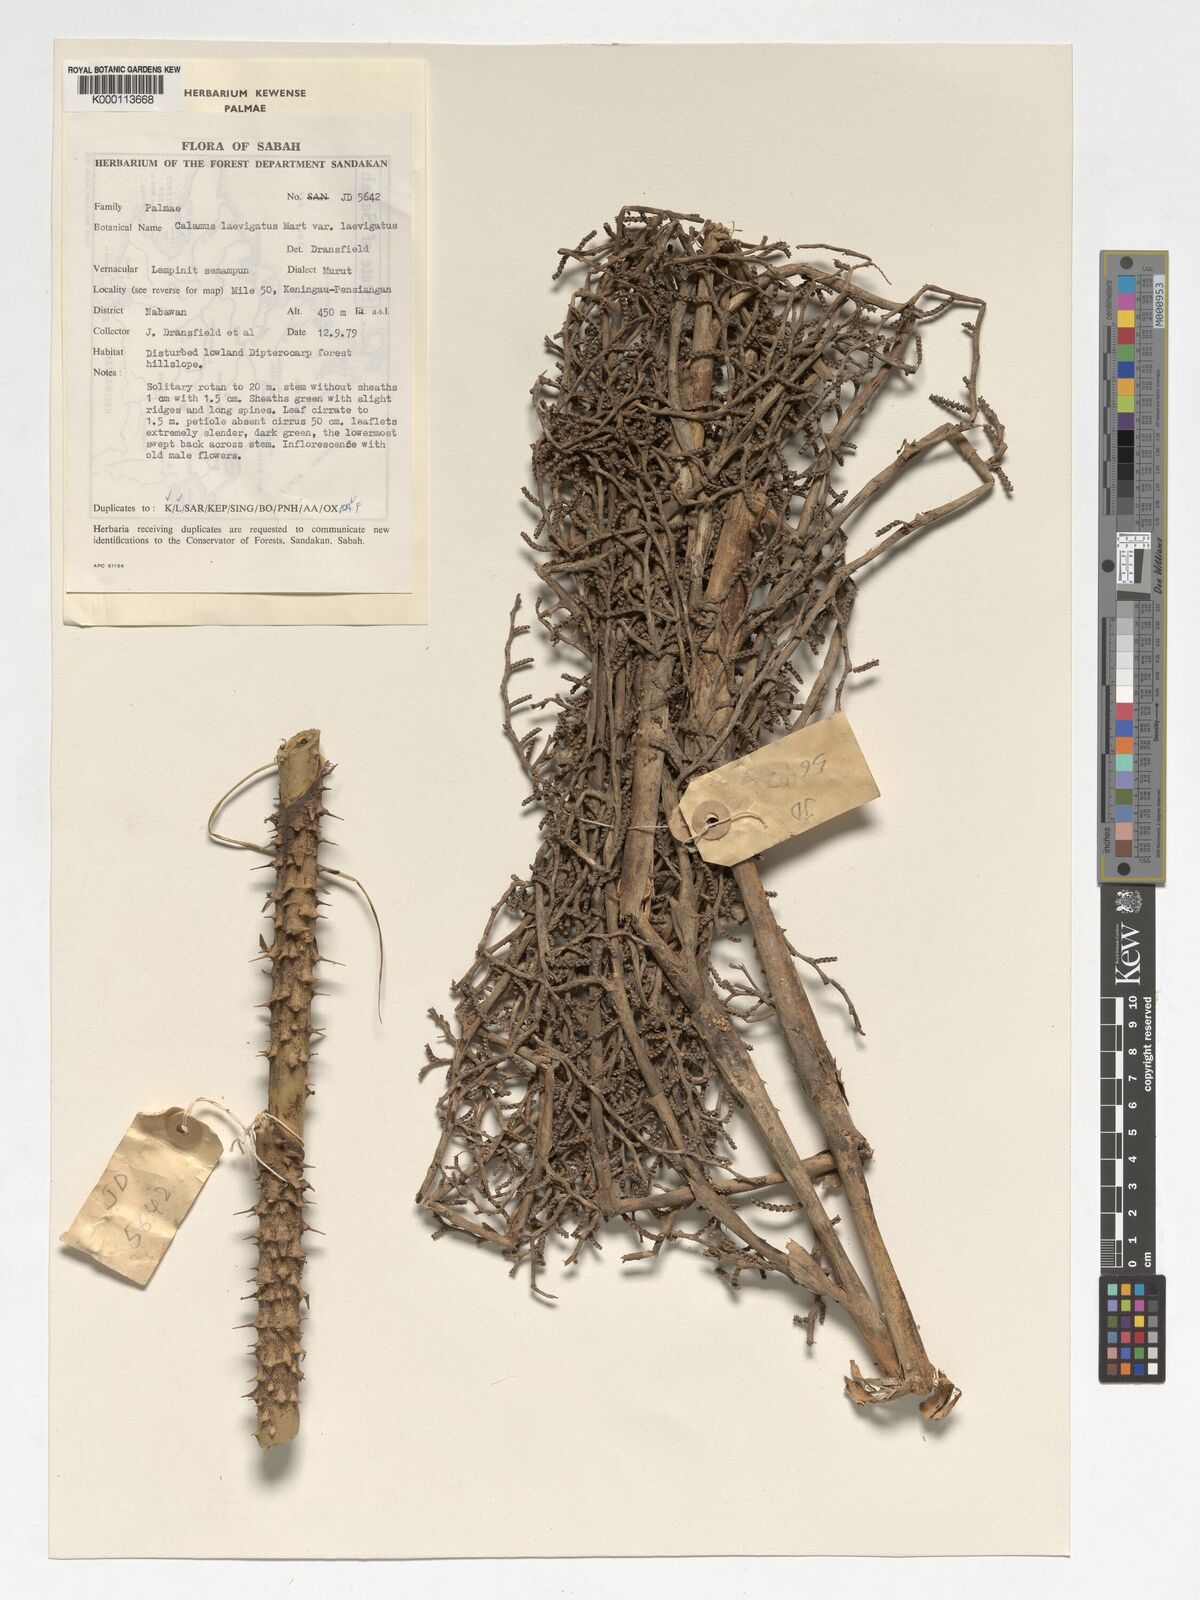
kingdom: Plantae
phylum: Tracheophyta
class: Liliopsida
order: Arecales
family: Arecaceae
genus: Calamus
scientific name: Calamus
